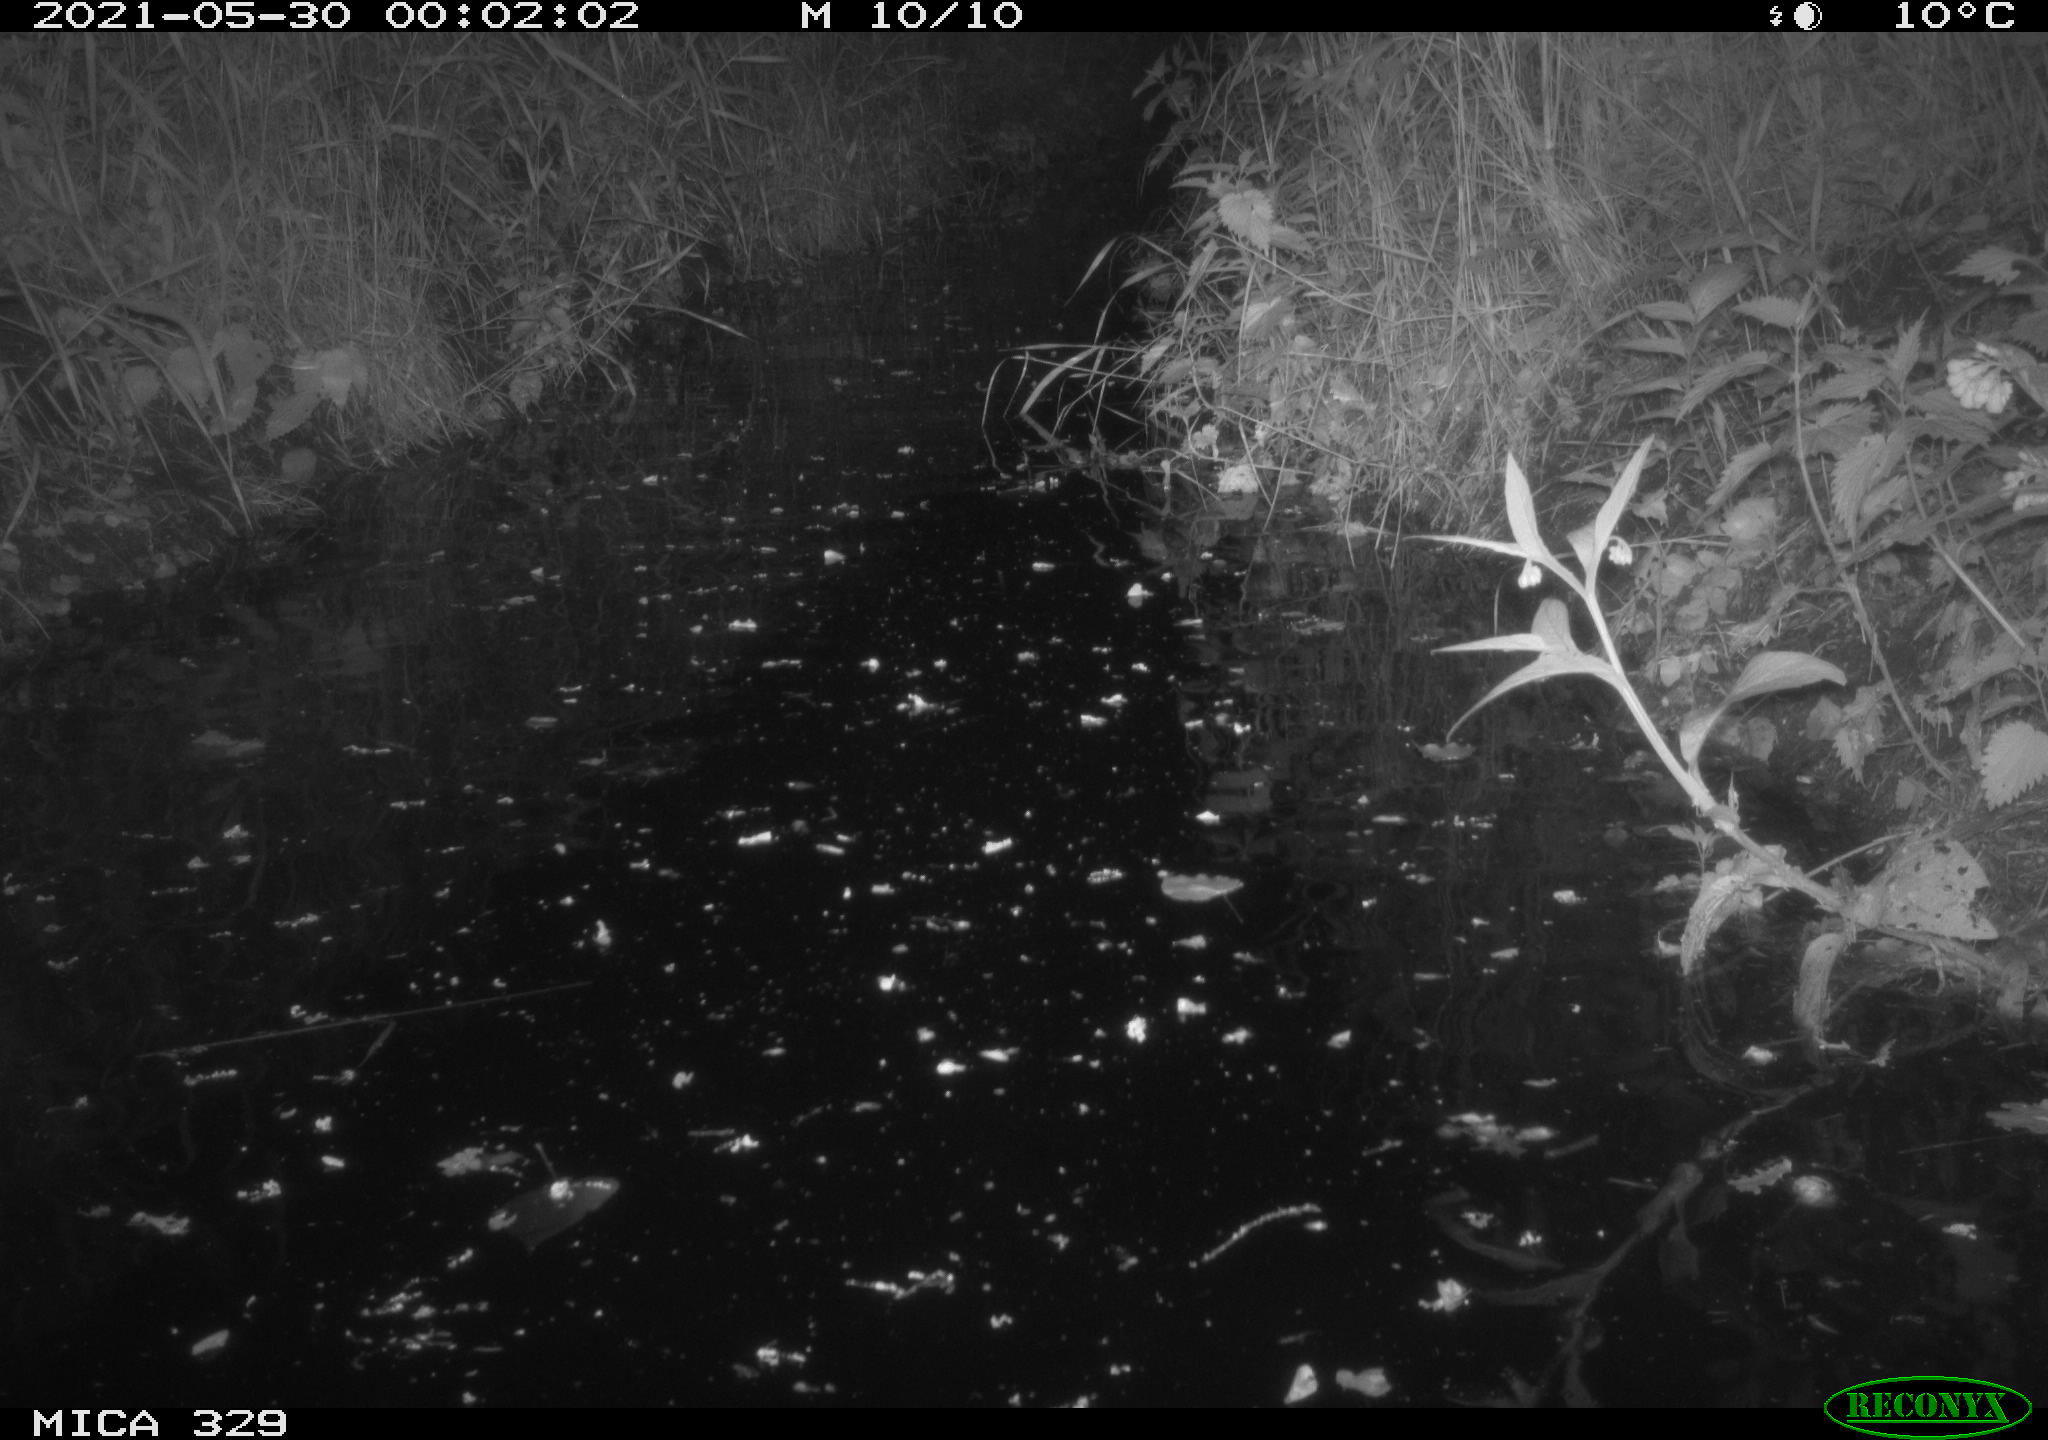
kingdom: Animalia
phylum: Chordata
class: Mammalia
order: Rodentia
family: Cricetidae
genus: Ondatra
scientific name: Ondatra zibethicus
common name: Muskrat
